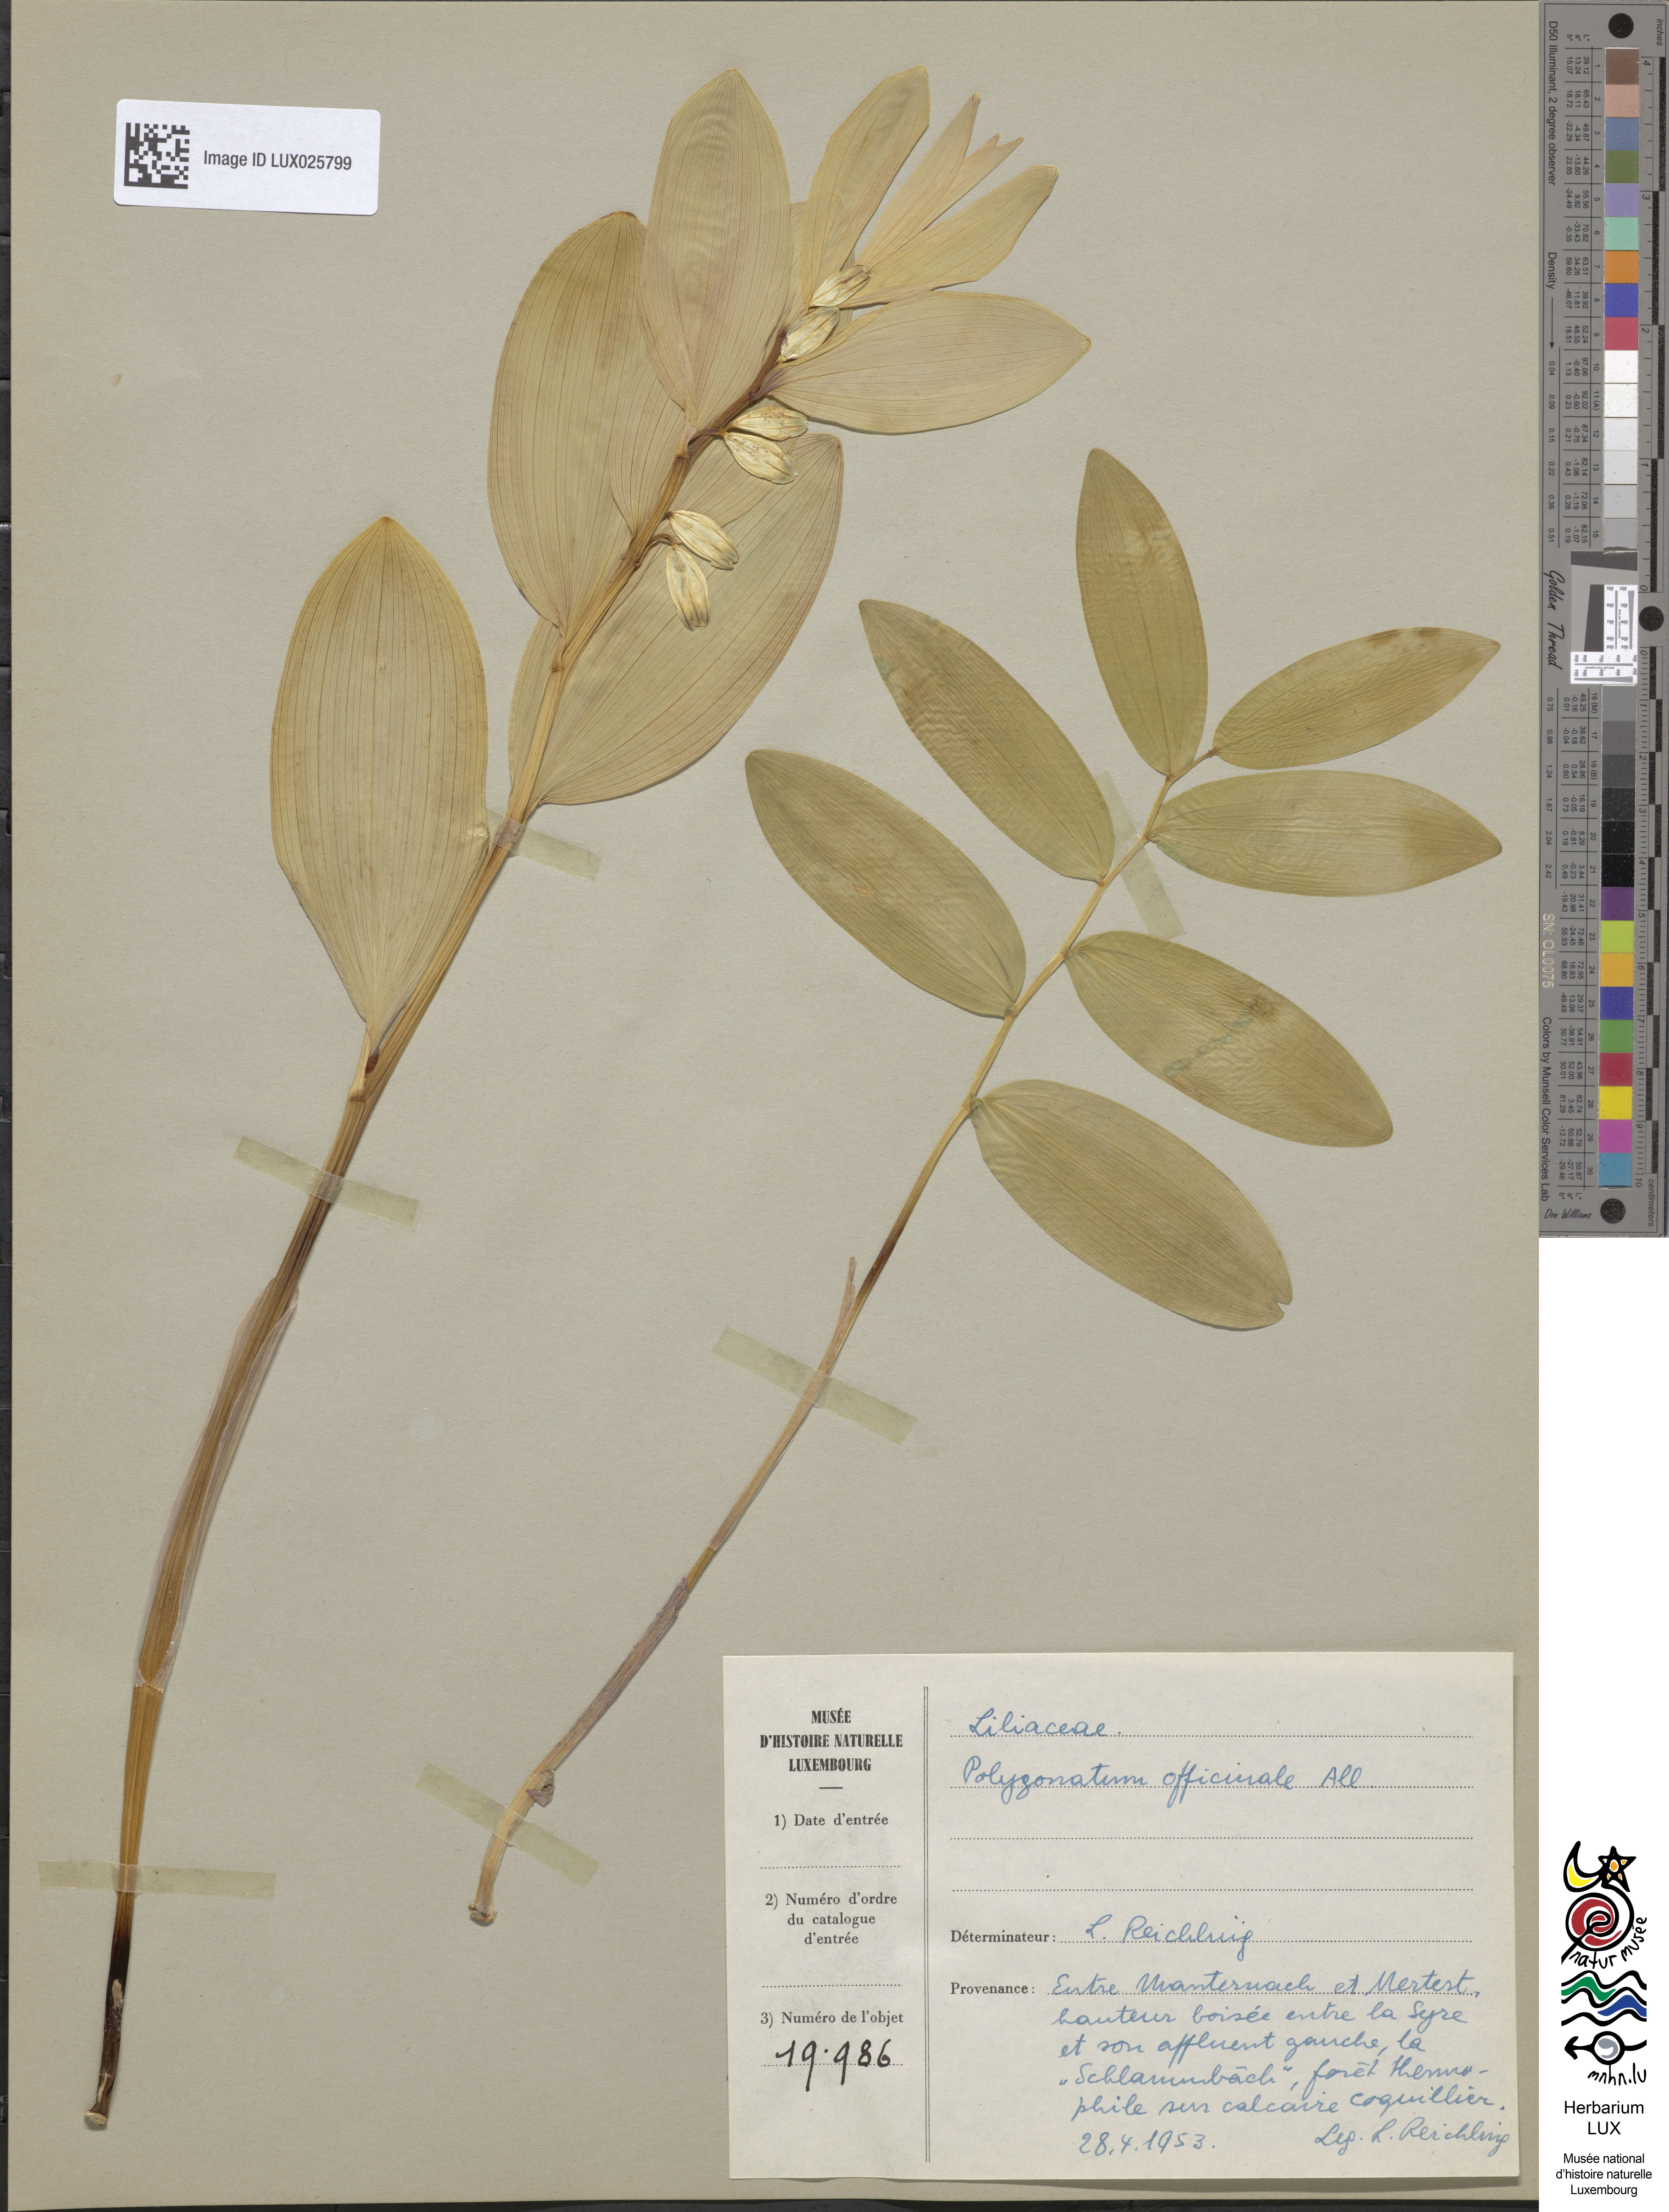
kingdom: Plantae
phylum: Tracheophyta
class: Liliopsida
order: Asparagales
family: Asparagaceae
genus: Polygonatum
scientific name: Polygonatum odoratum
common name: Angular solomon's-seal
